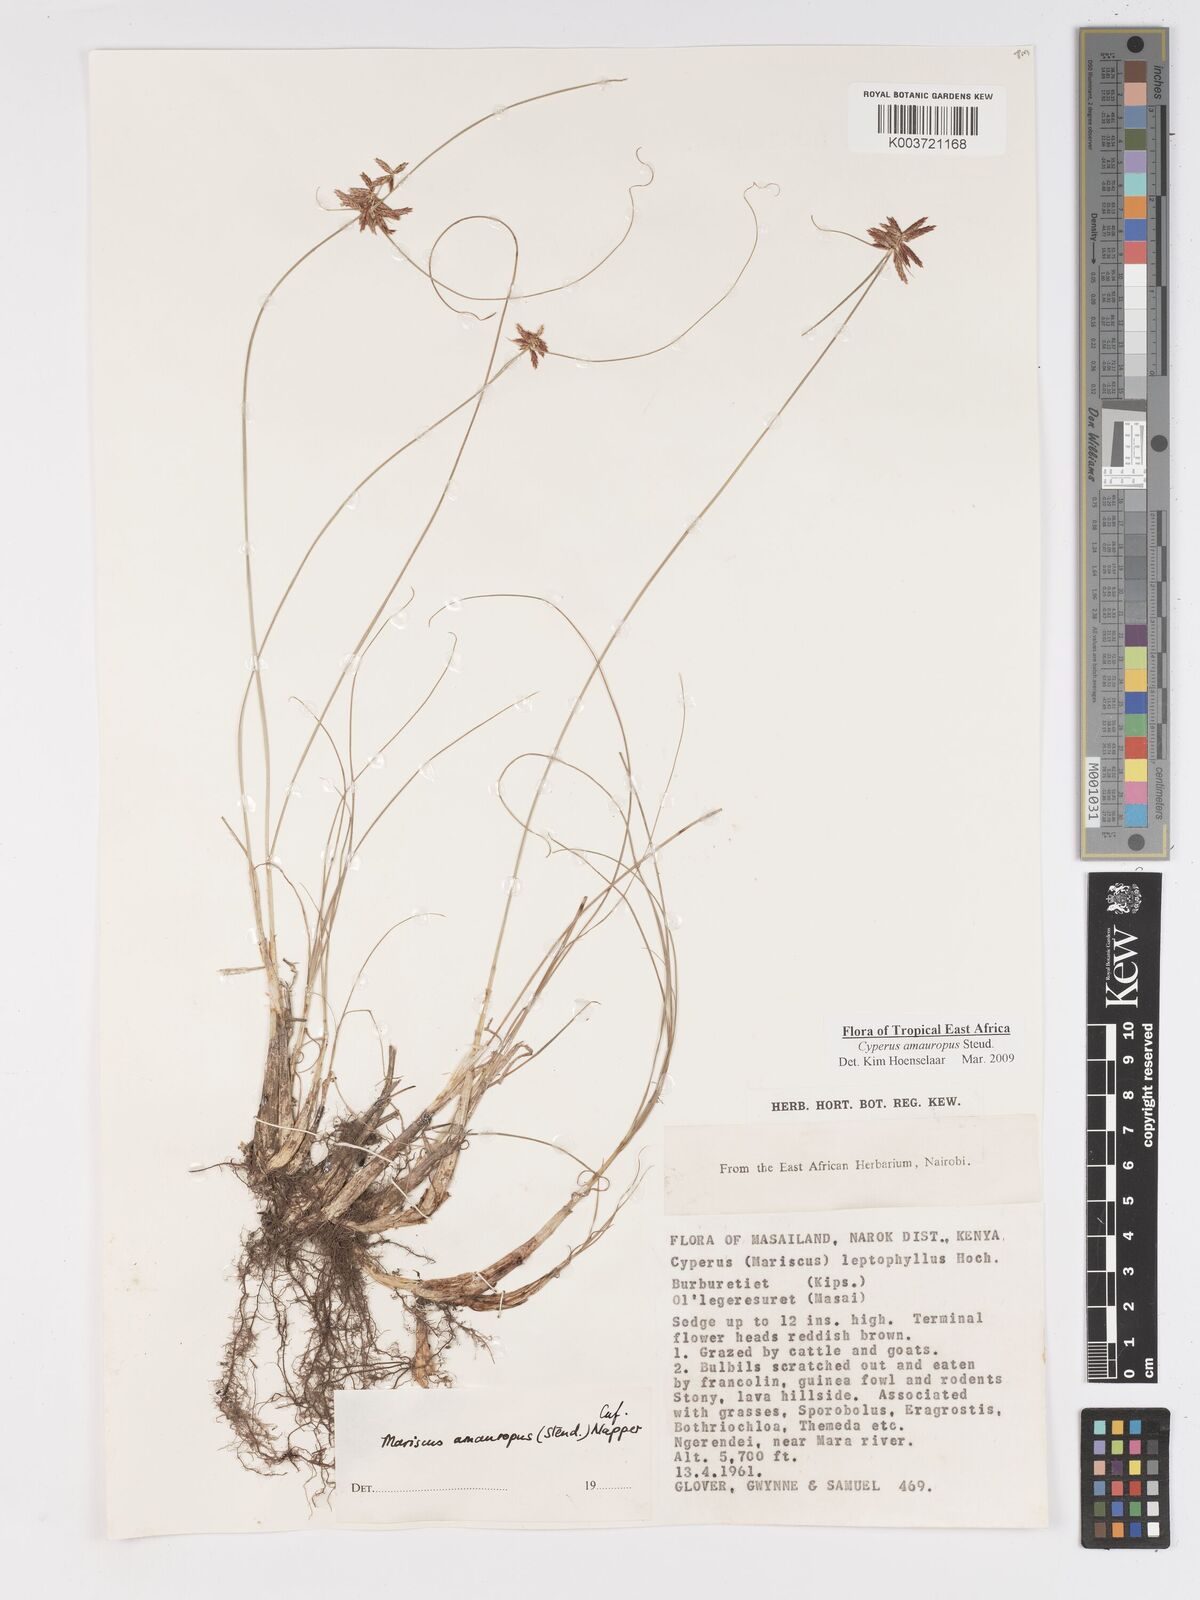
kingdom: Plantae
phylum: Tracheophyta
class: Liliopsida
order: Poales
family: Cyperaceae
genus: Cyperus
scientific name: Cyperus amauropus
